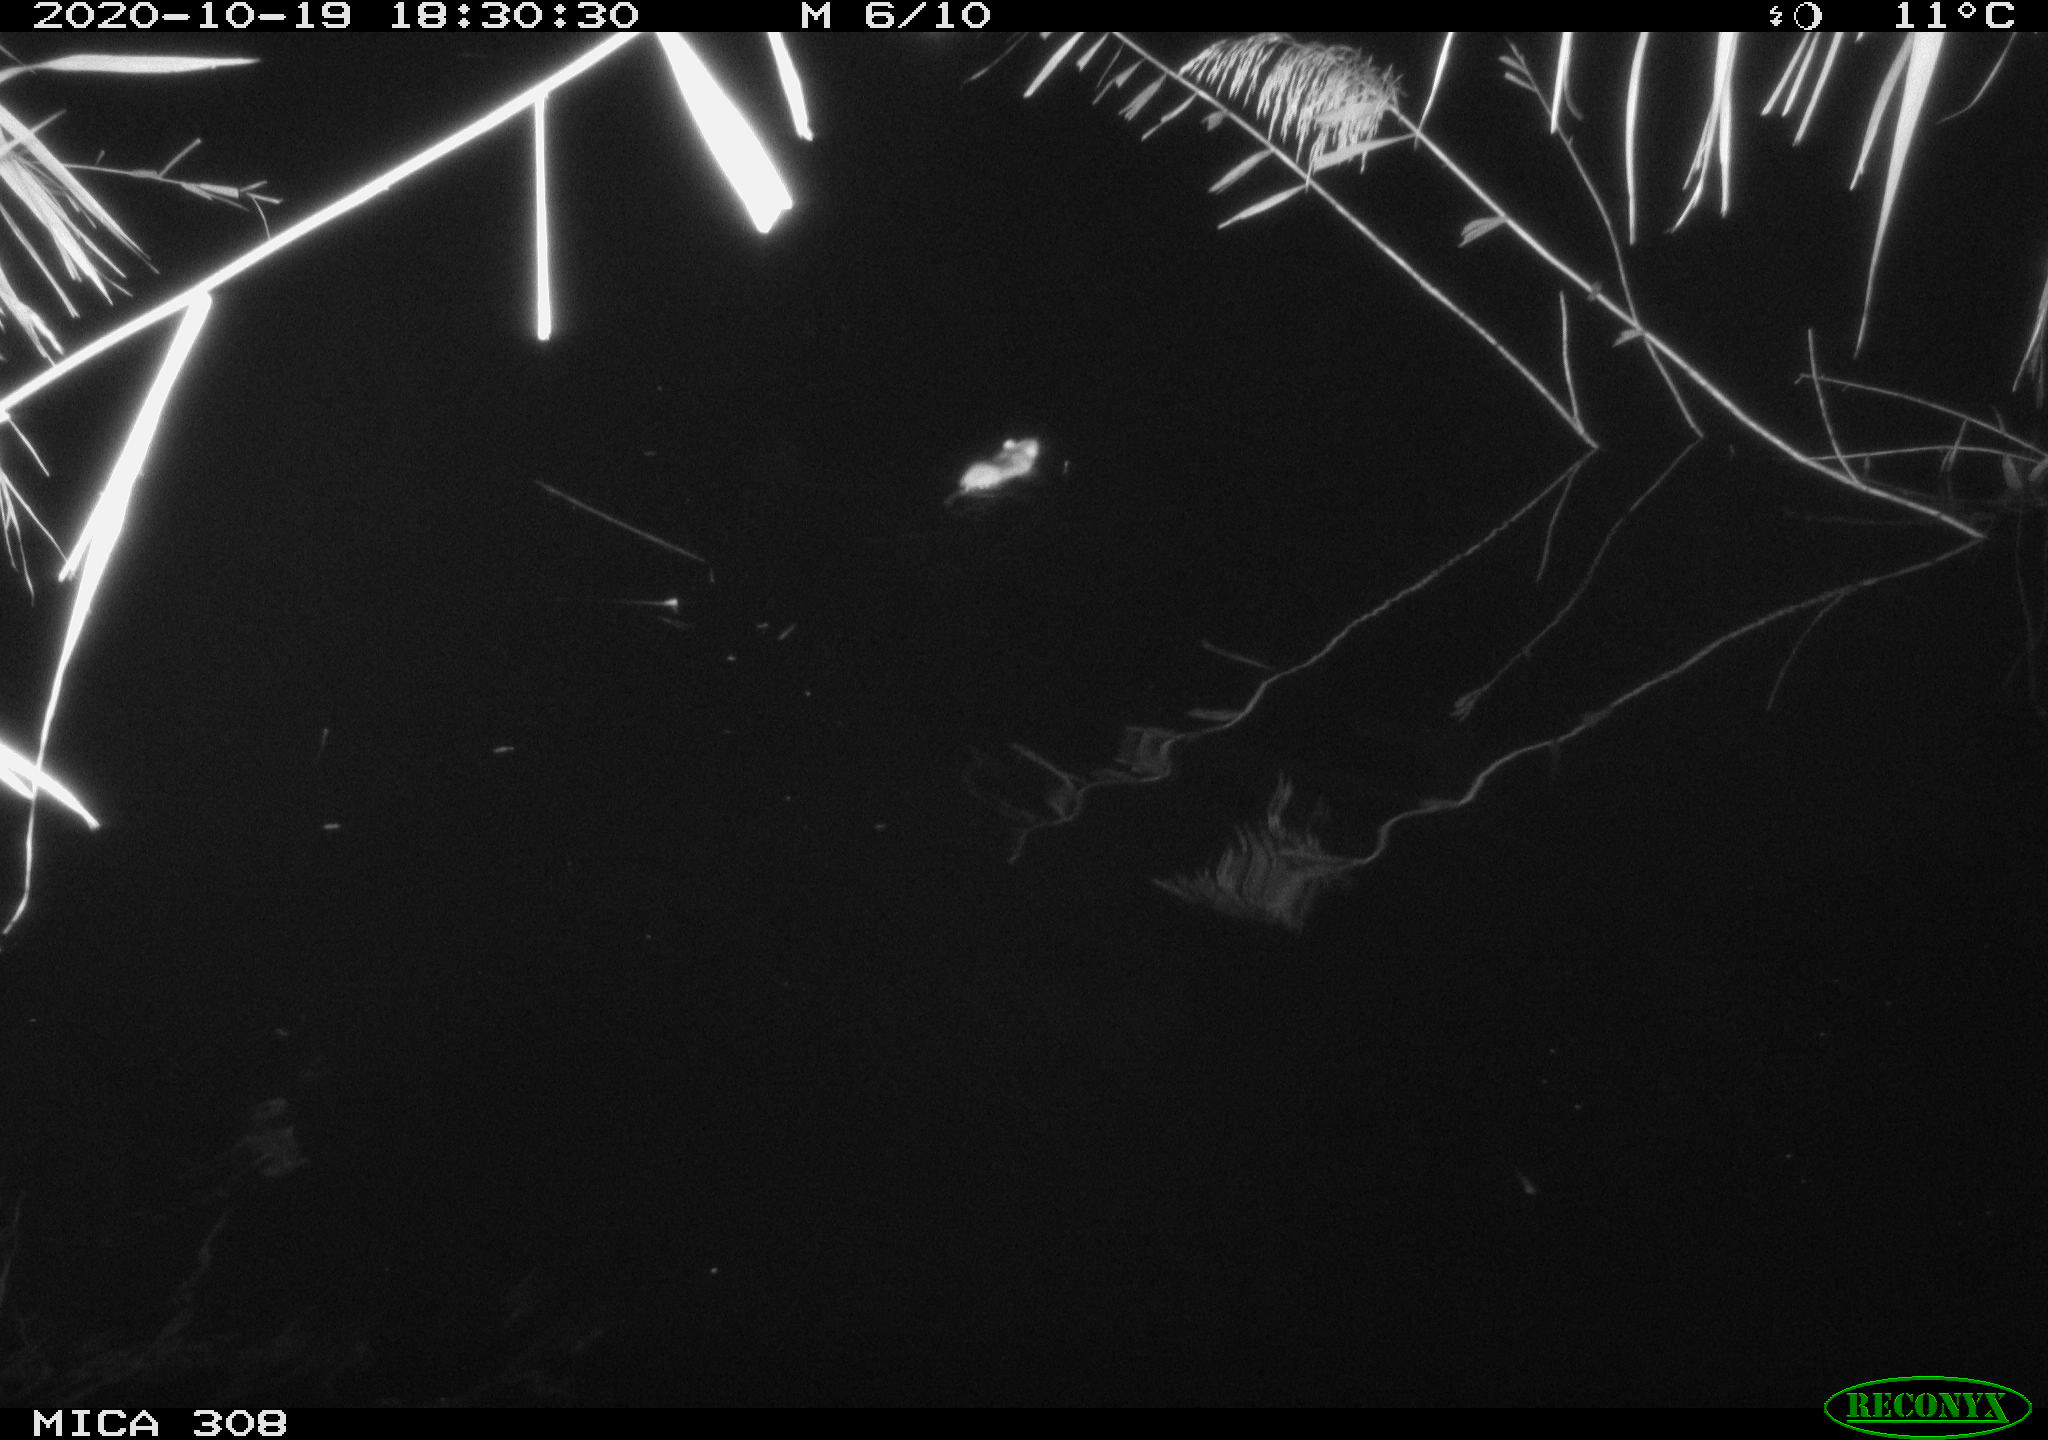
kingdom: Animalia
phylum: Chordata
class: Mammalia
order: Rodentia
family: Muridae
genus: Rattus
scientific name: Rattus norvegicus
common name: Brown rat
